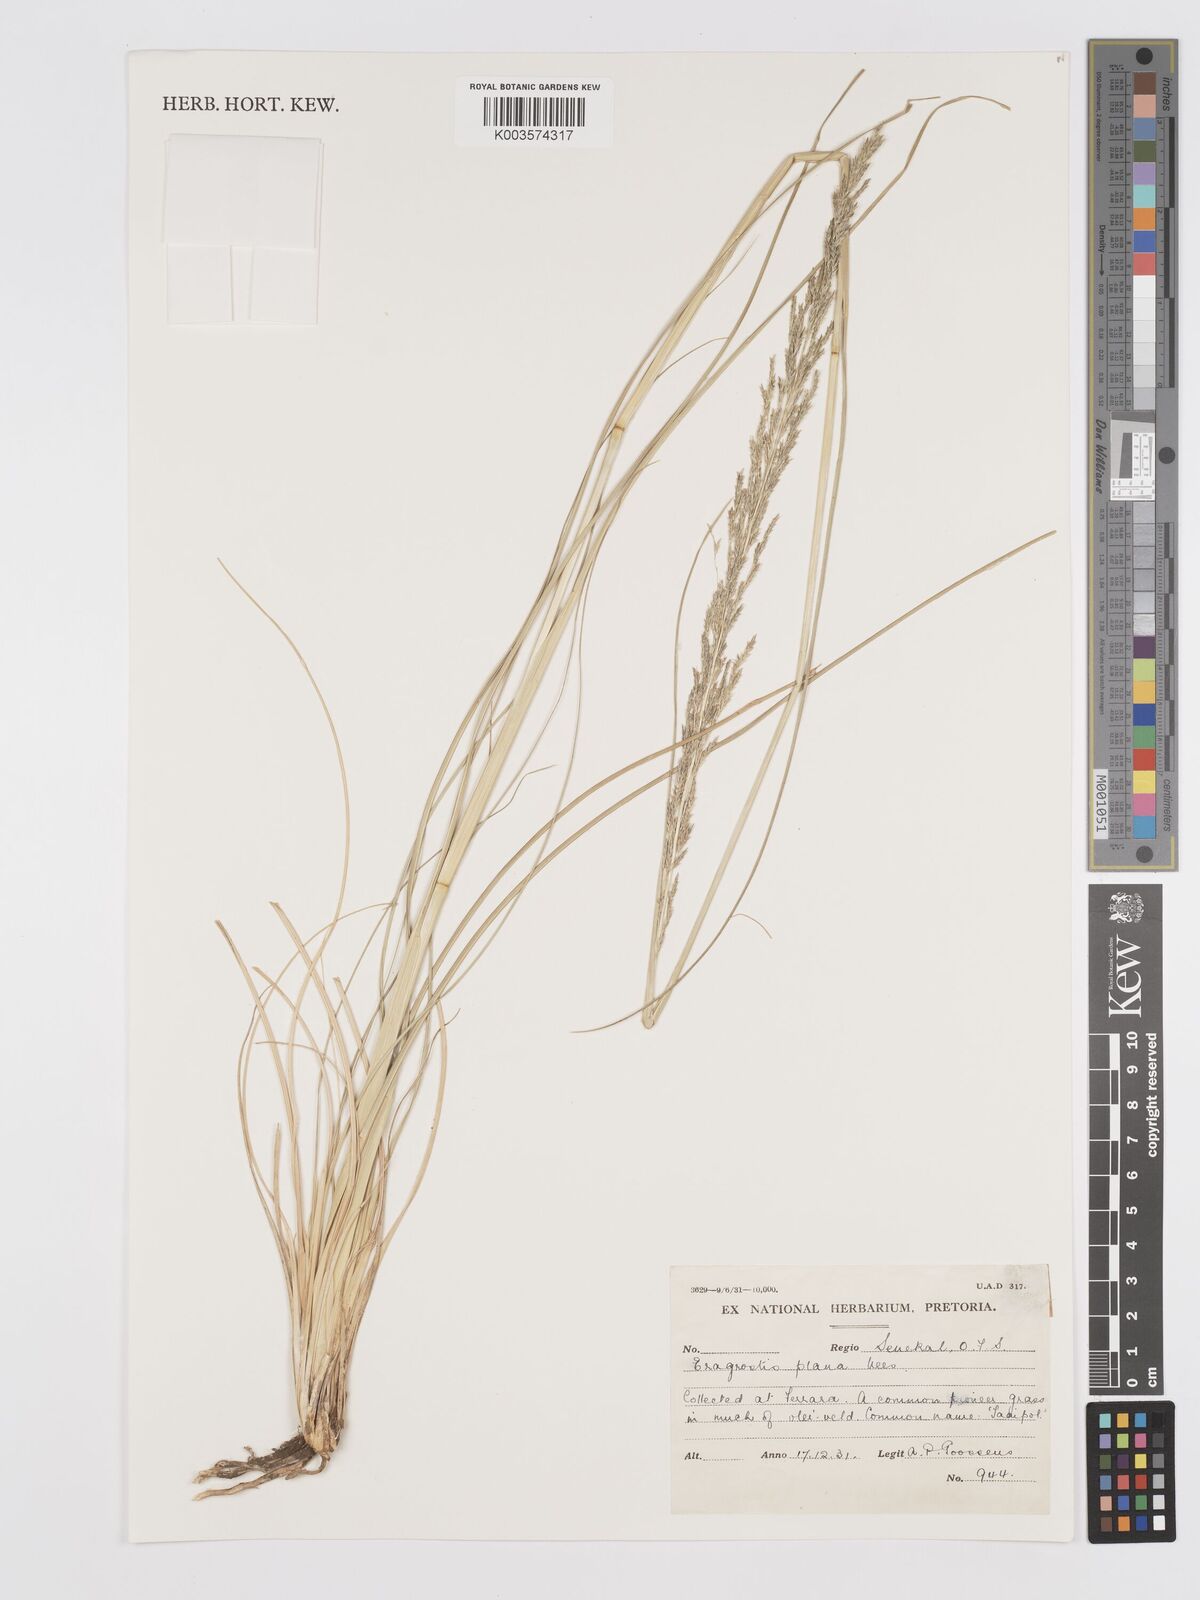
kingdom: Plantae
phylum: Tracheophyta
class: Liliopsida
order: Poales
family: Poaceae
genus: Eragrostis
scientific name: Eragrostis plana
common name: South african lovegrass
